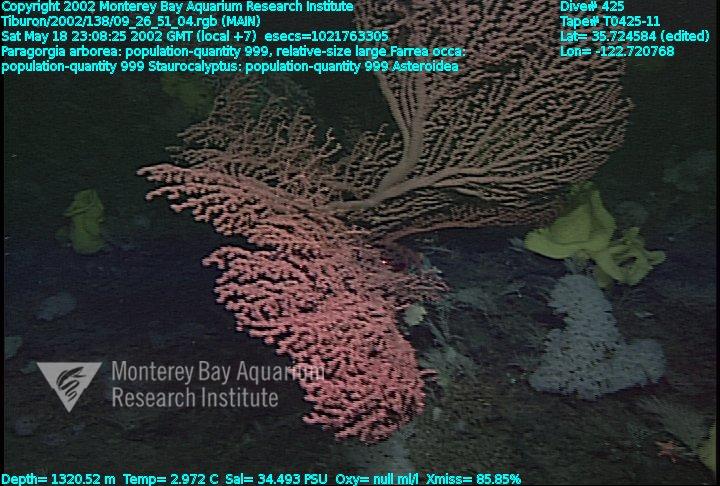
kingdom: Animalia
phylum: Porifera
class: Hexactinellida
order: Lyssacinosida
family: Rossellidae
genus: Staurocalyptus
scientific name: Staurocalyptus
